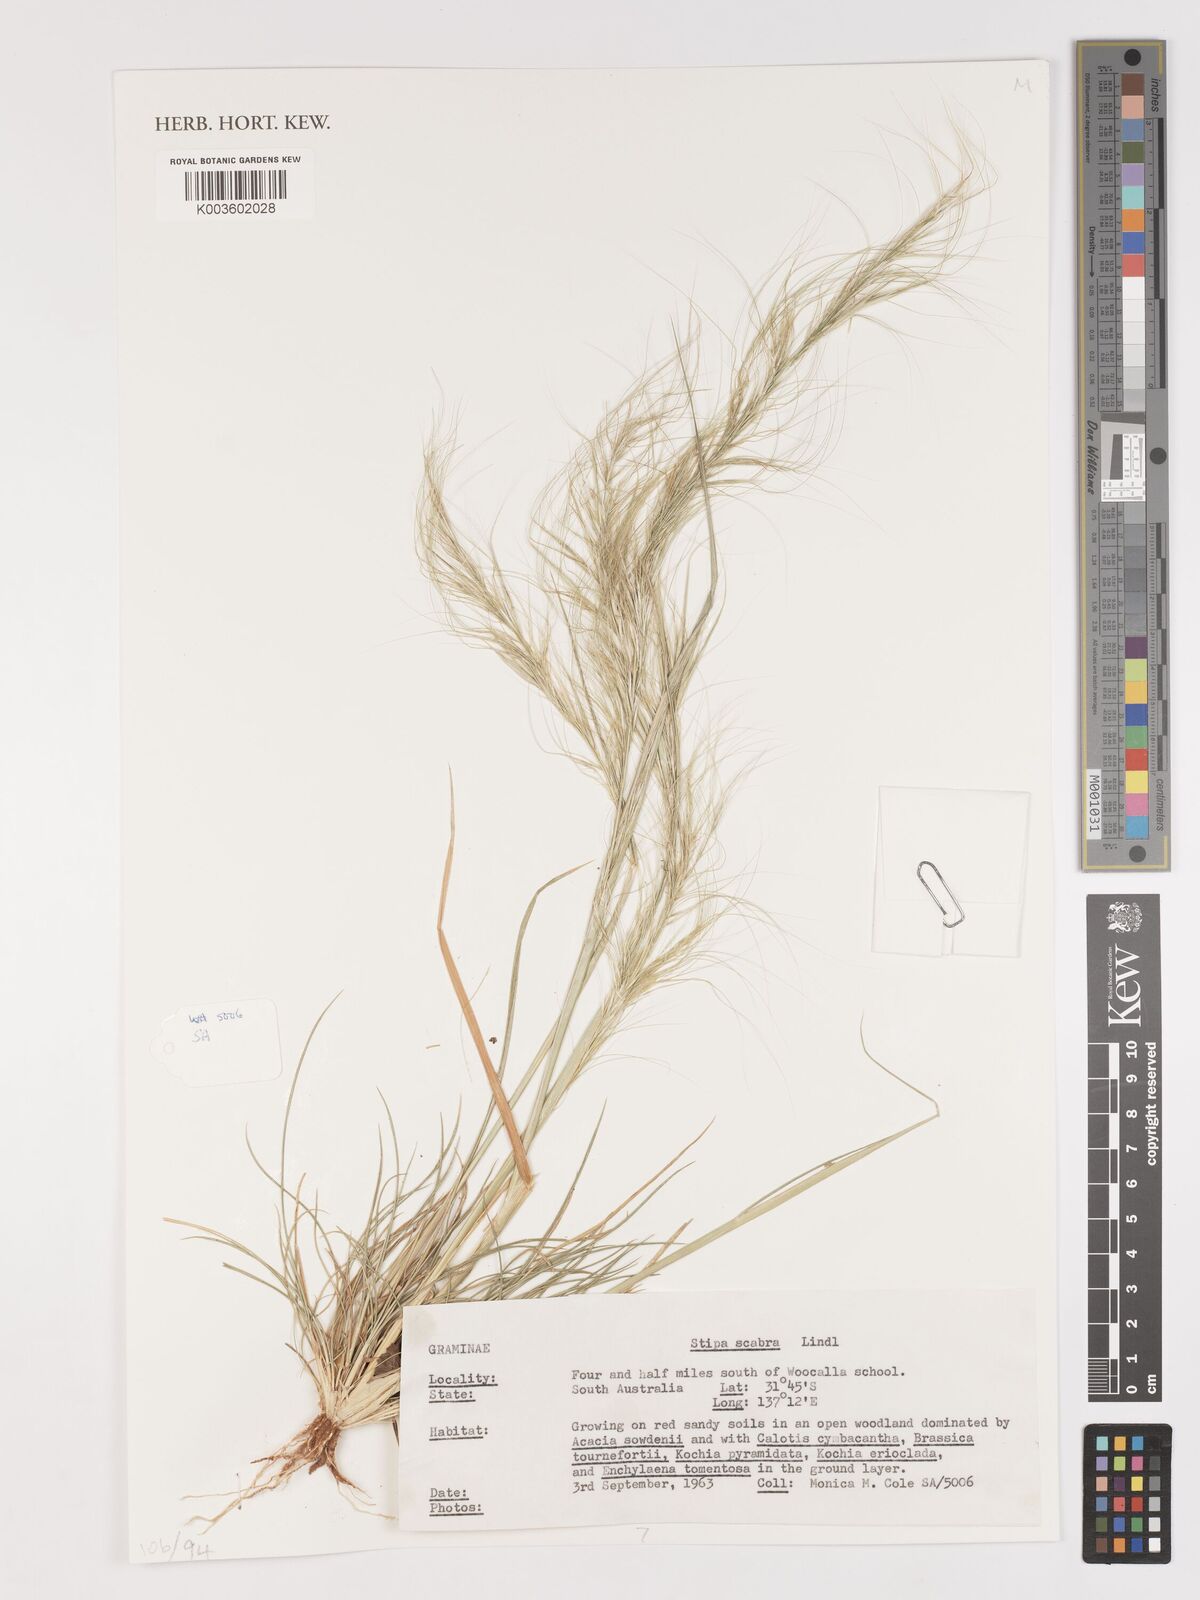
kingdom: Plantae
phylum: Tracheophyta
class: Liliopsida
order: Poales
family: Poaceae
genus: Austrostipa
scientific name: Austrostipa scabra
